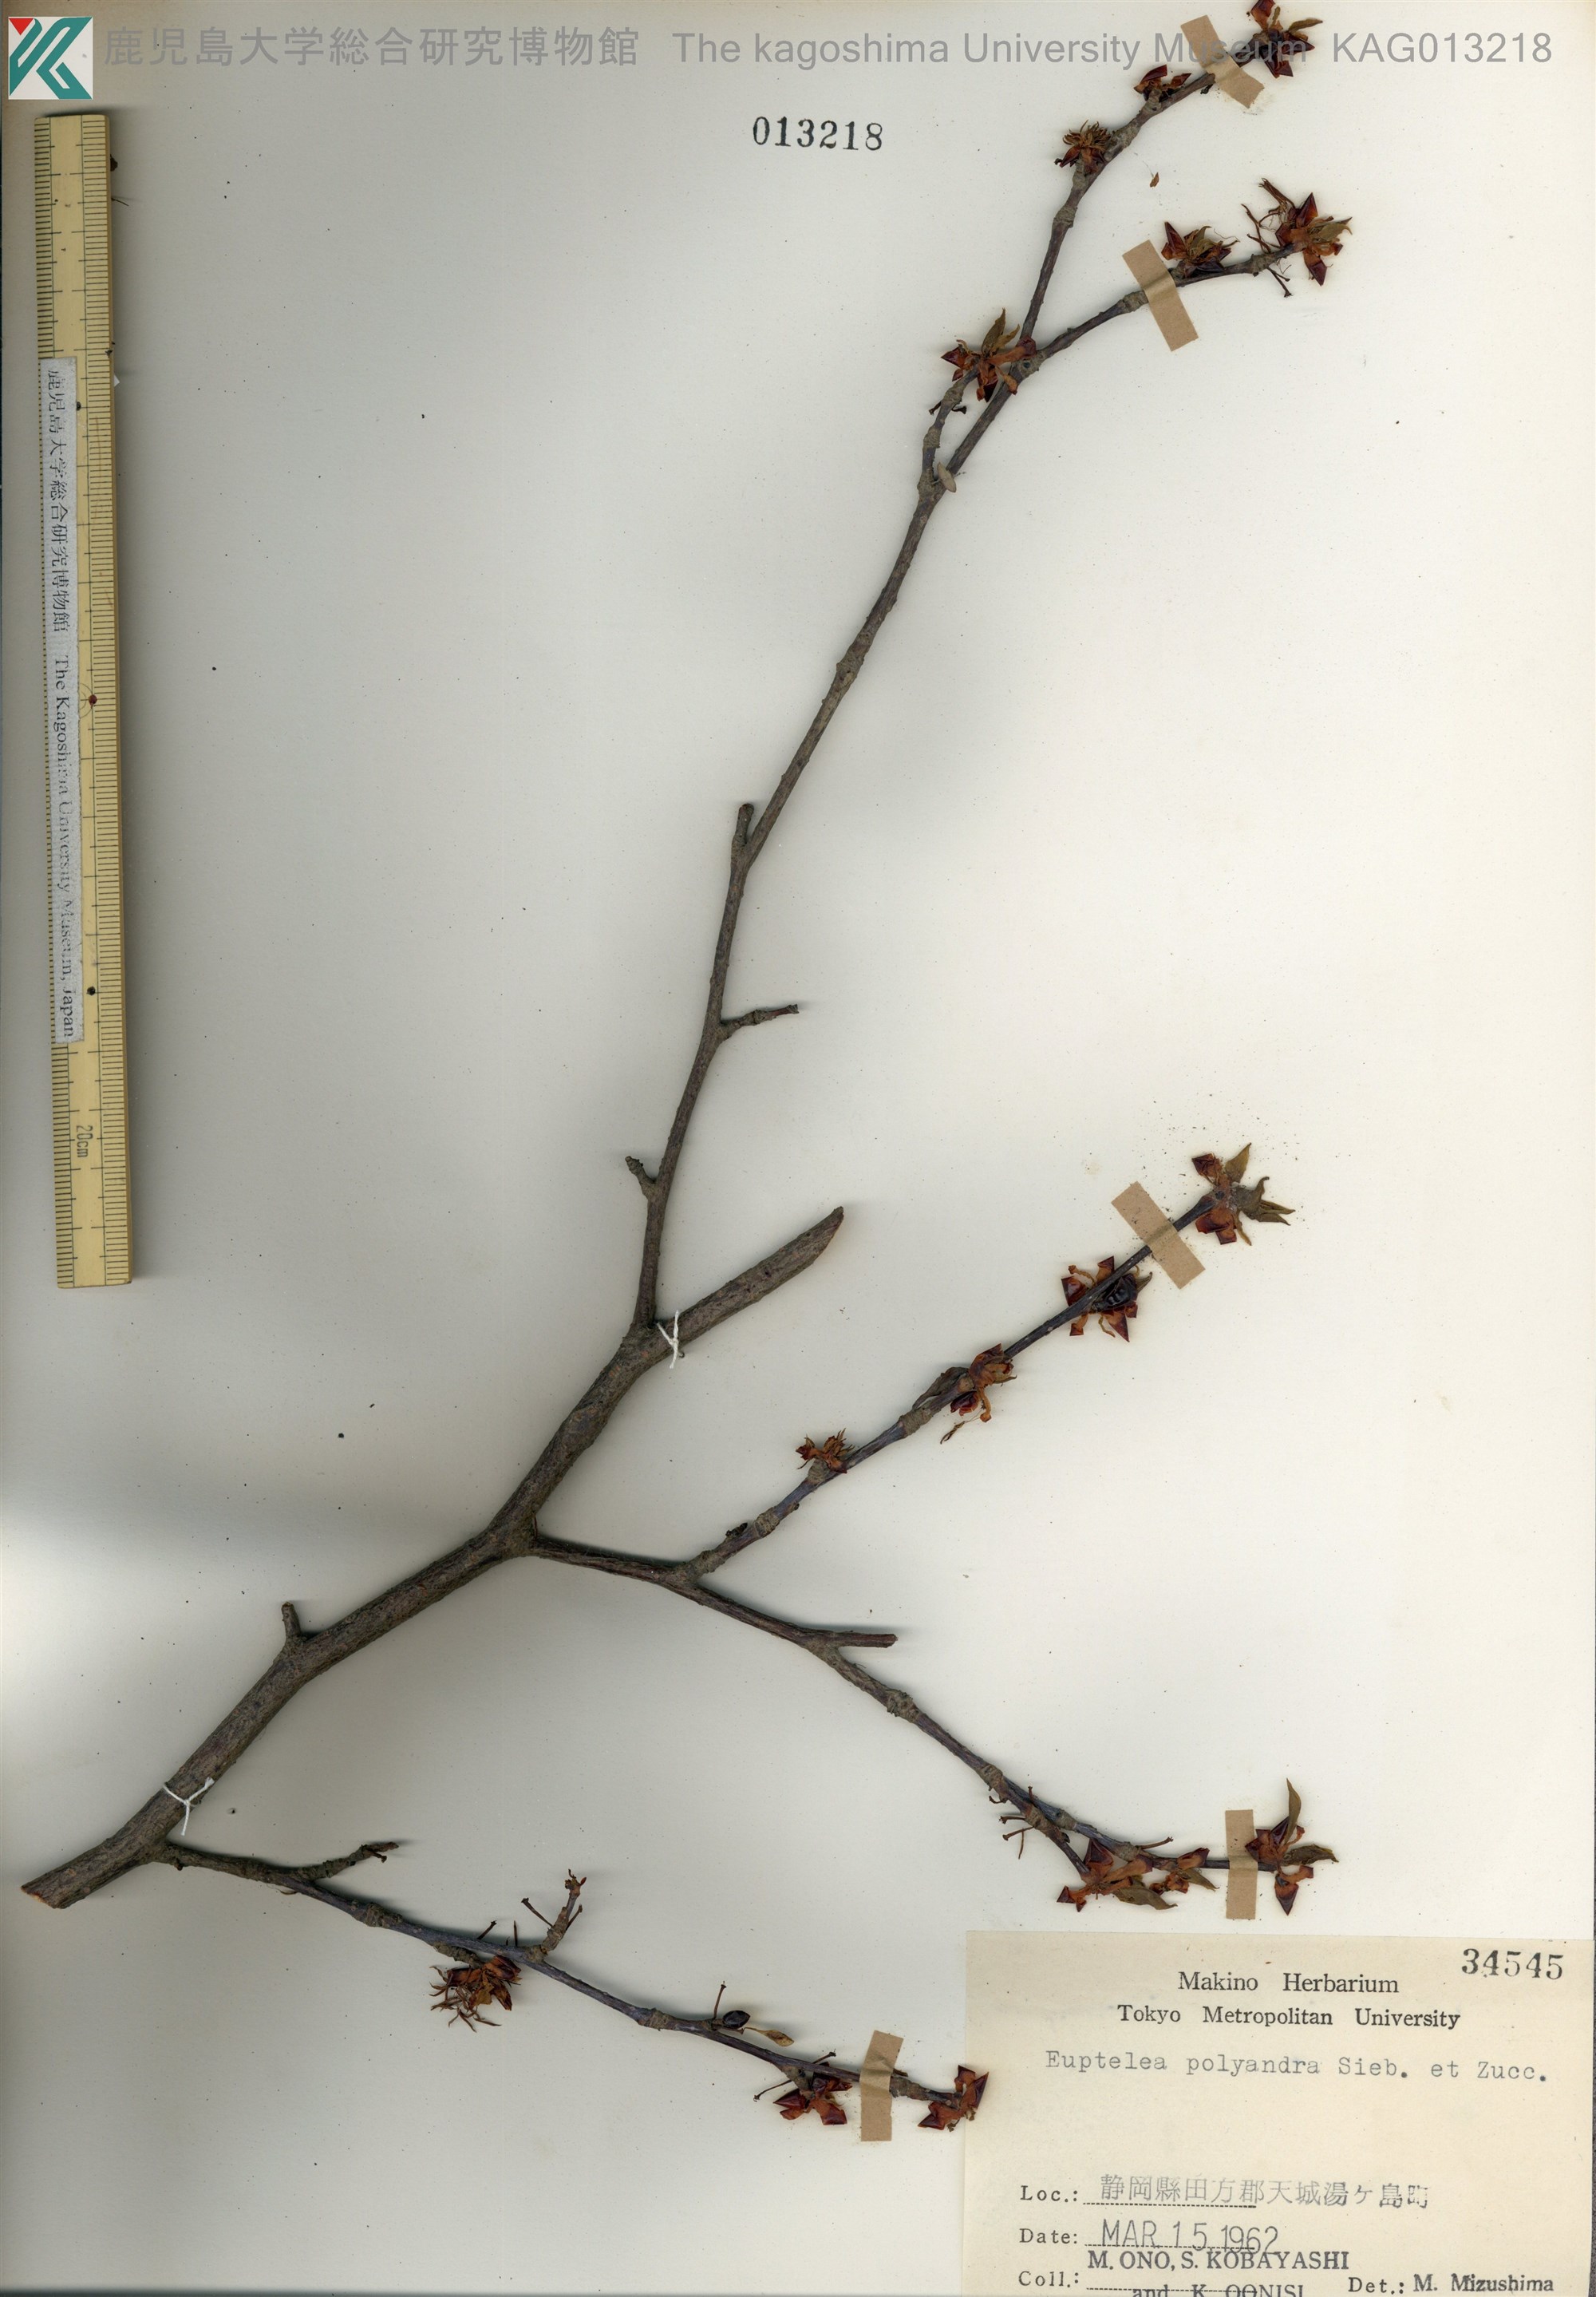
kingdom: Plantae
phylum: Tracheophyta
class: Magnoliopsida
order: Ranunculales
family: Eupteleaceae
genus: Euptelea
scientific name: Euptelea polyandra
